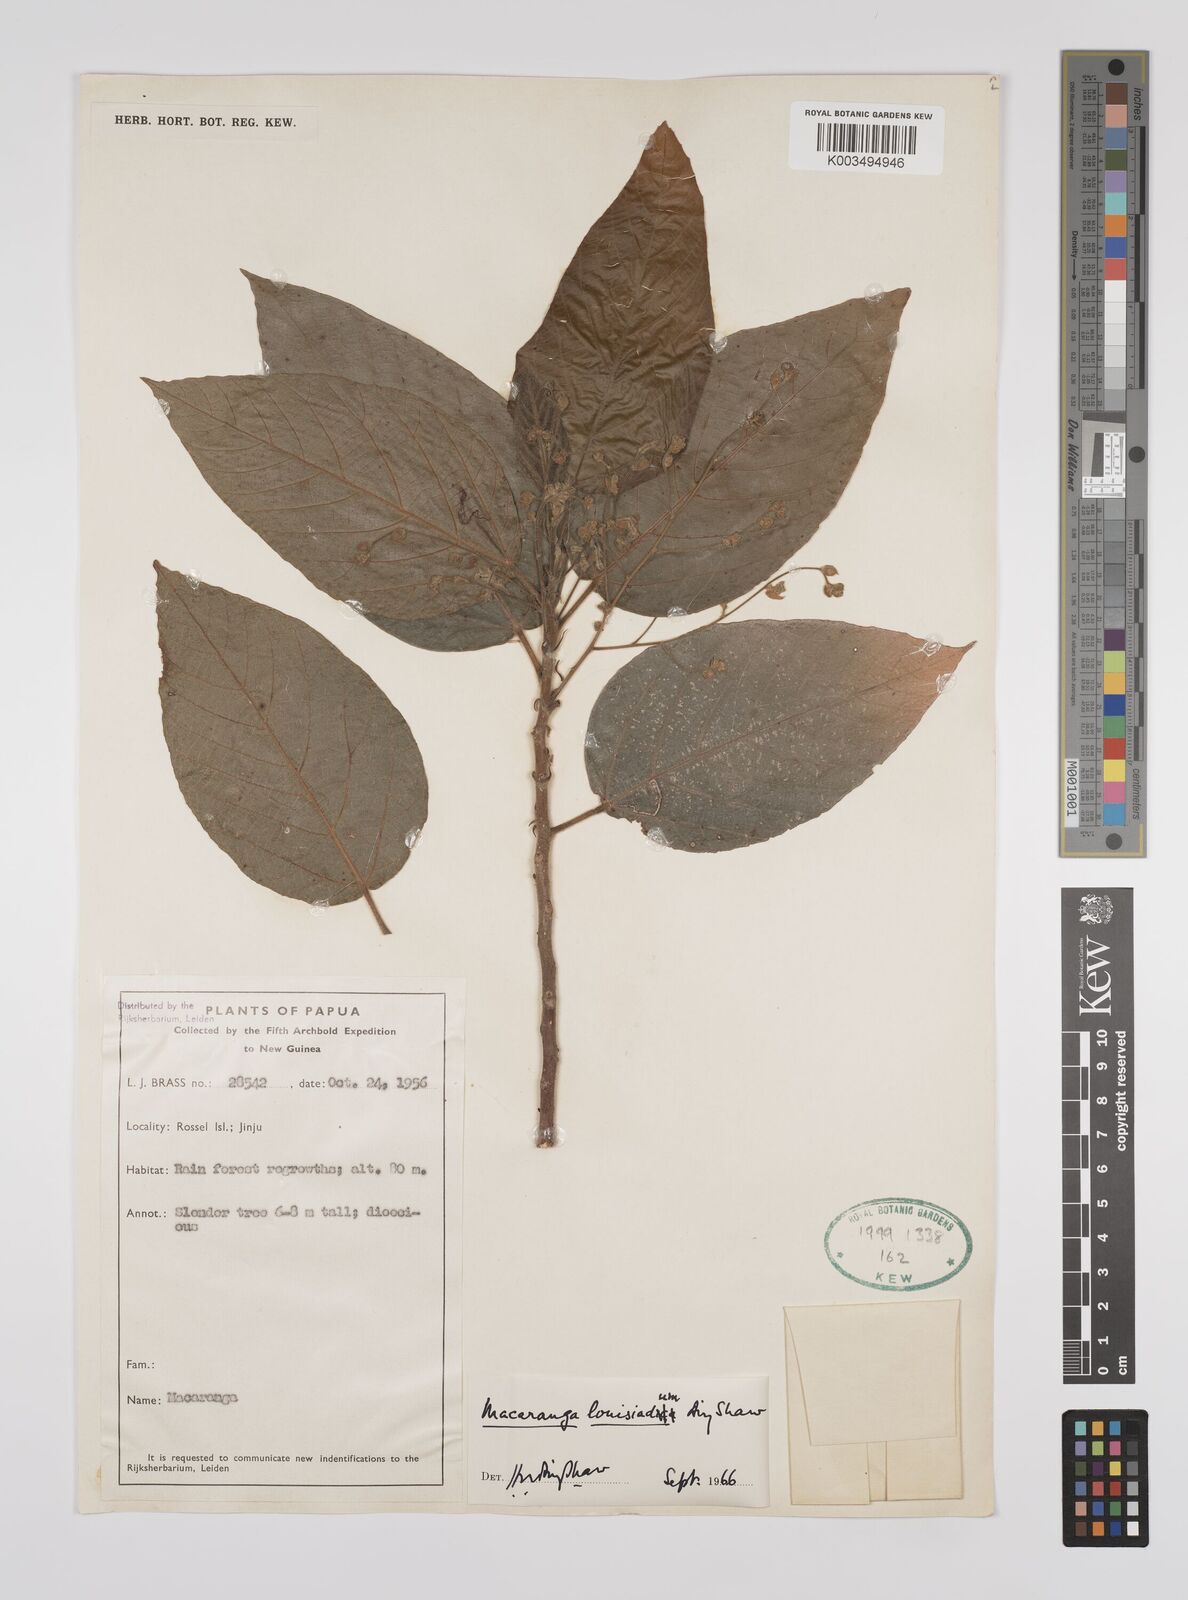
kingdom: Plantae
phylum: Tracheophyta
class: Magnoliopsida
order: Malpighiales
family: Euphorbiaceae
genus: Macaranga
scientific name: Macaranga louisiadum
